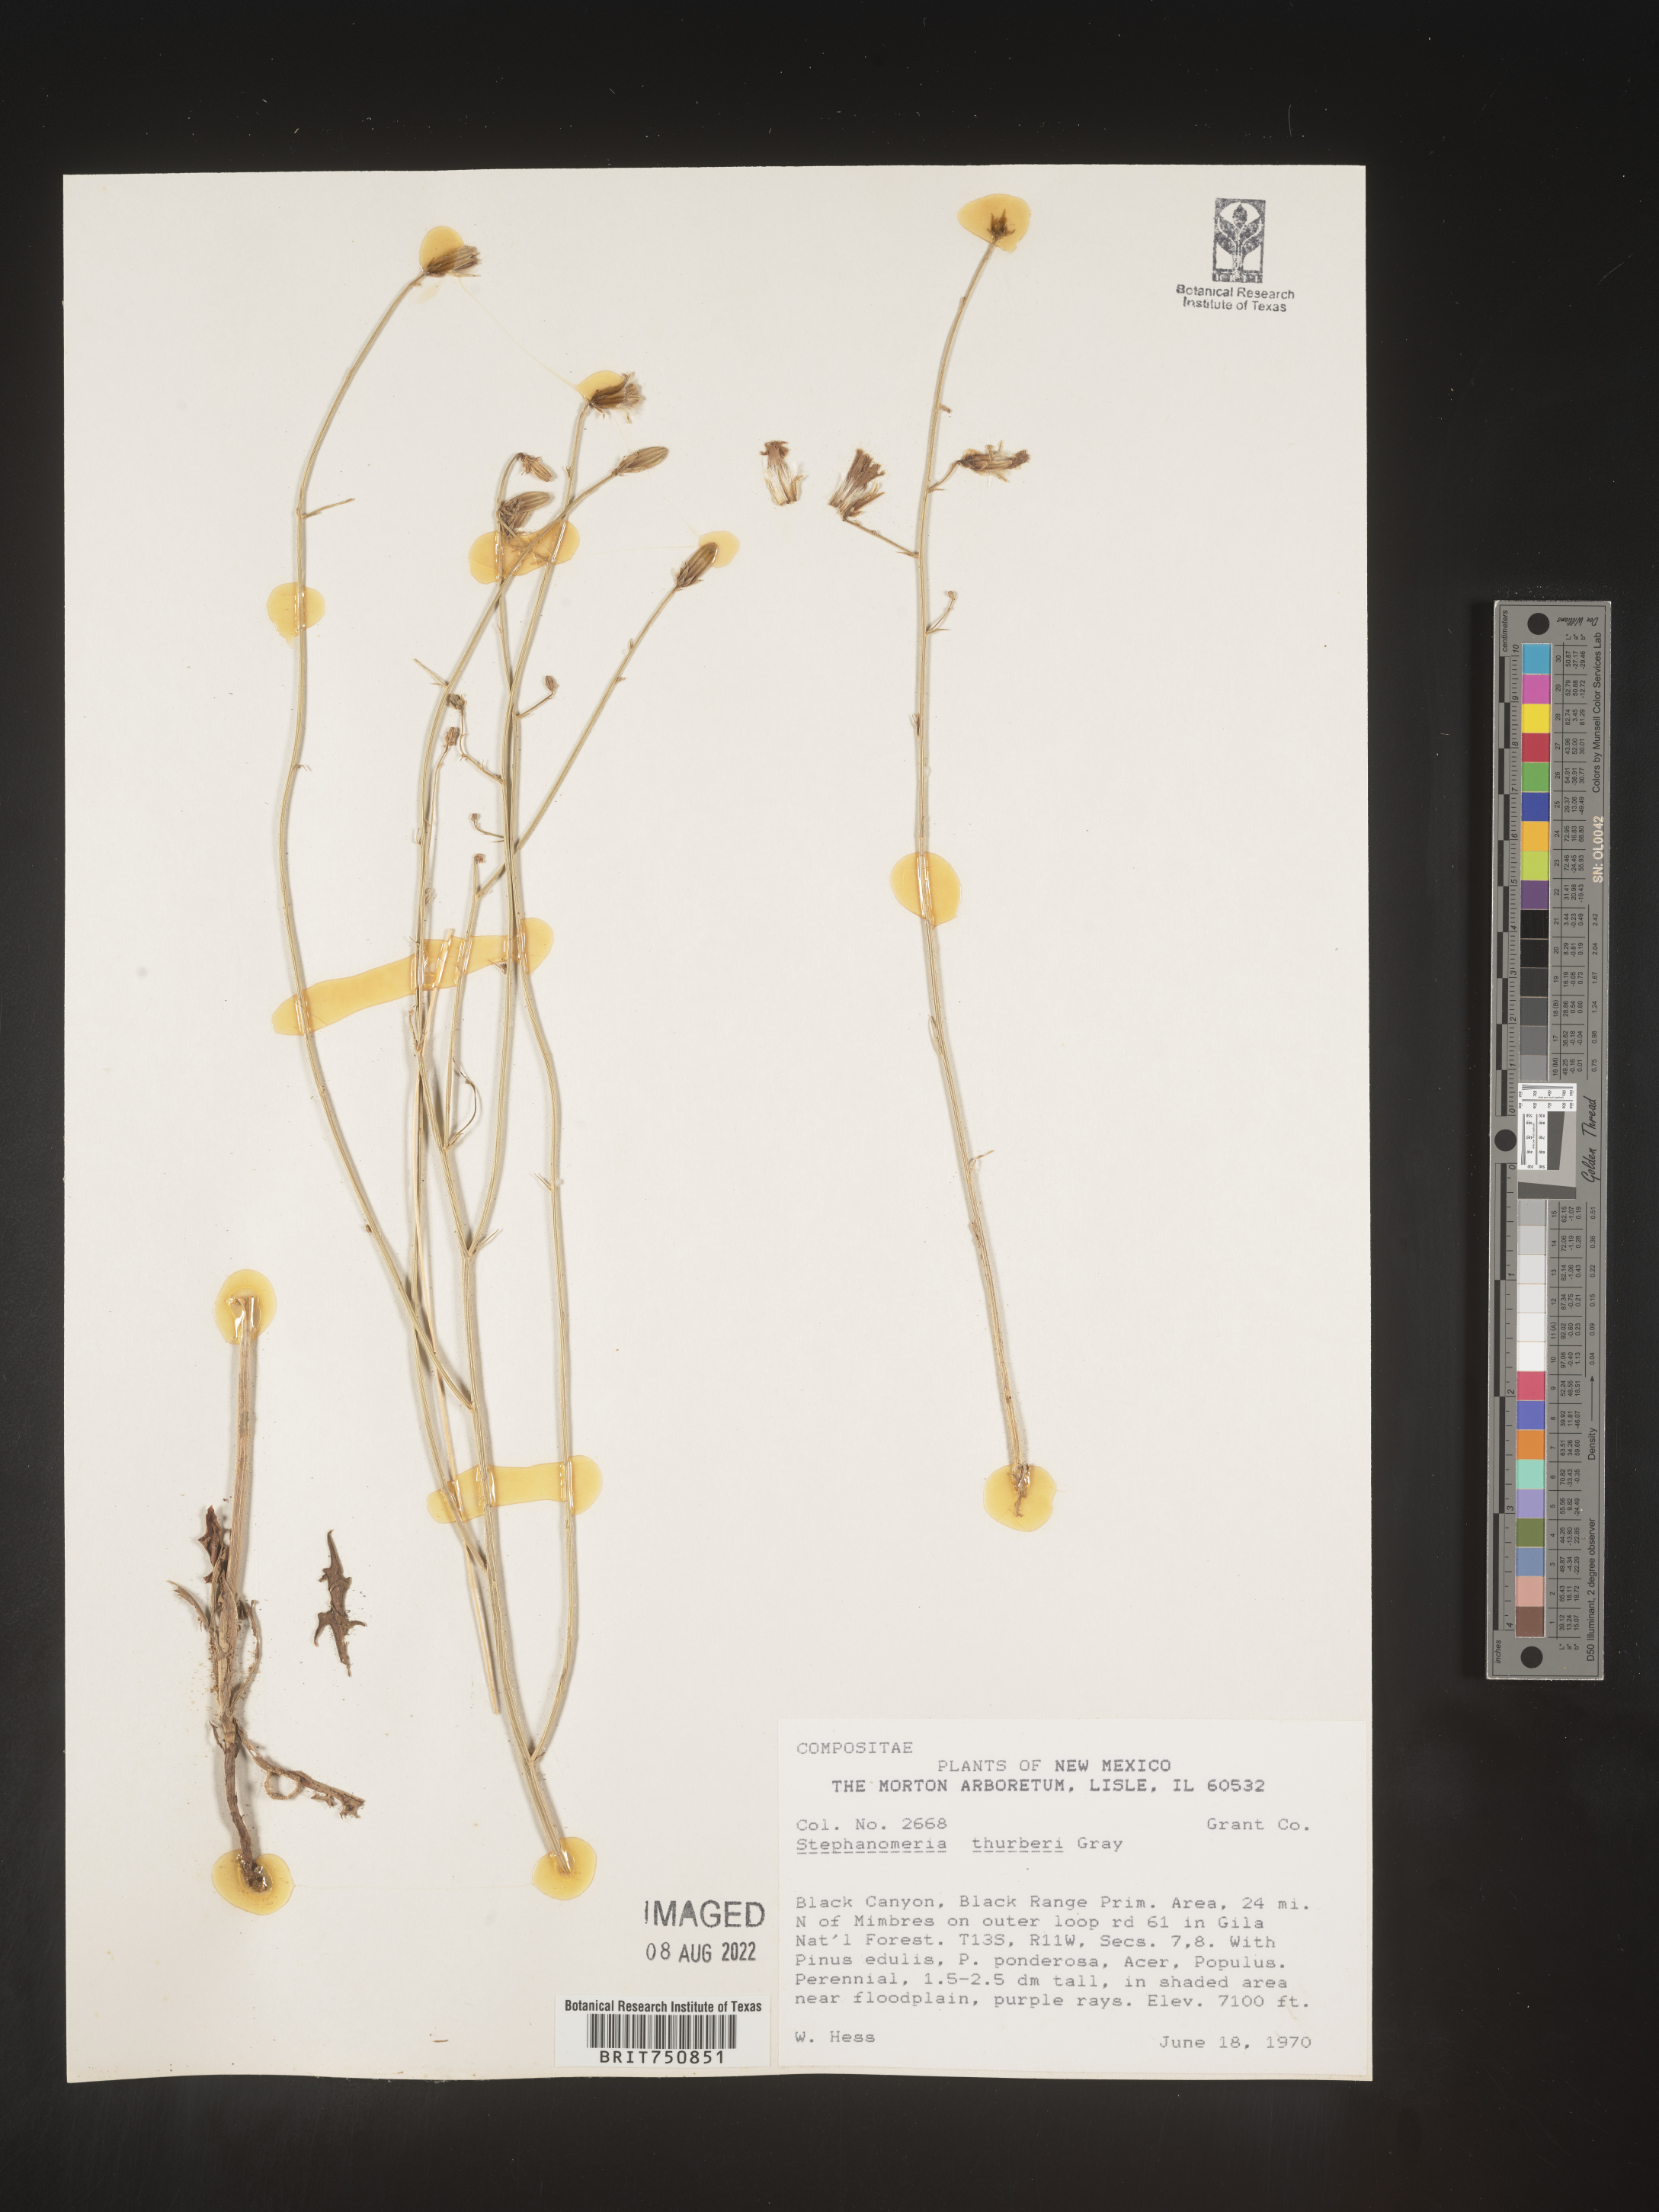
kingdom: Plantae
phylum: Tracheophyta
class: Magnoliopsida
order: Asterales
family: Asteraceae
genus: Stephanomeria
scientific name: Stephanomeria thurberi
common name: Thurber's wire-lettuce
